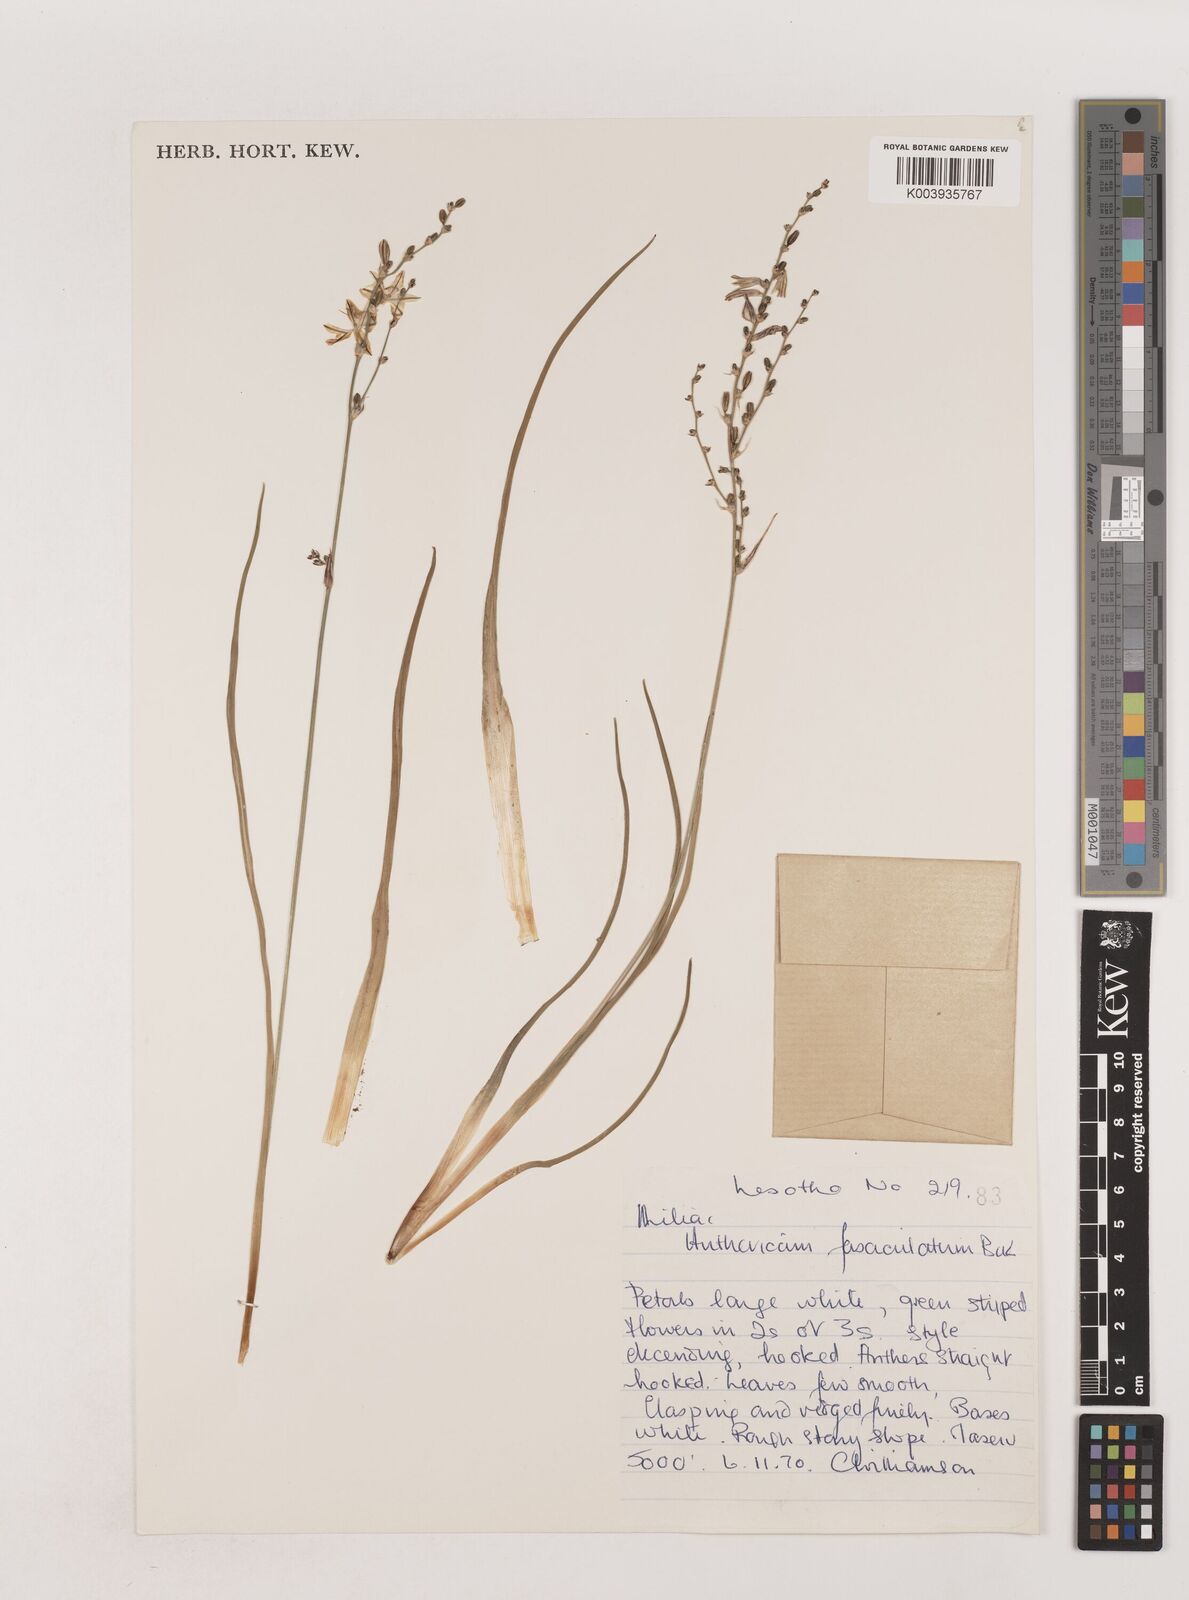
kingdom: Plantae
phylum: Tracheophyta
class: Liliopsida
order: Asparagales
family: Asparagaceae
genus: Chlorophytum
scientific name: Chlorophytum fasciculatum
